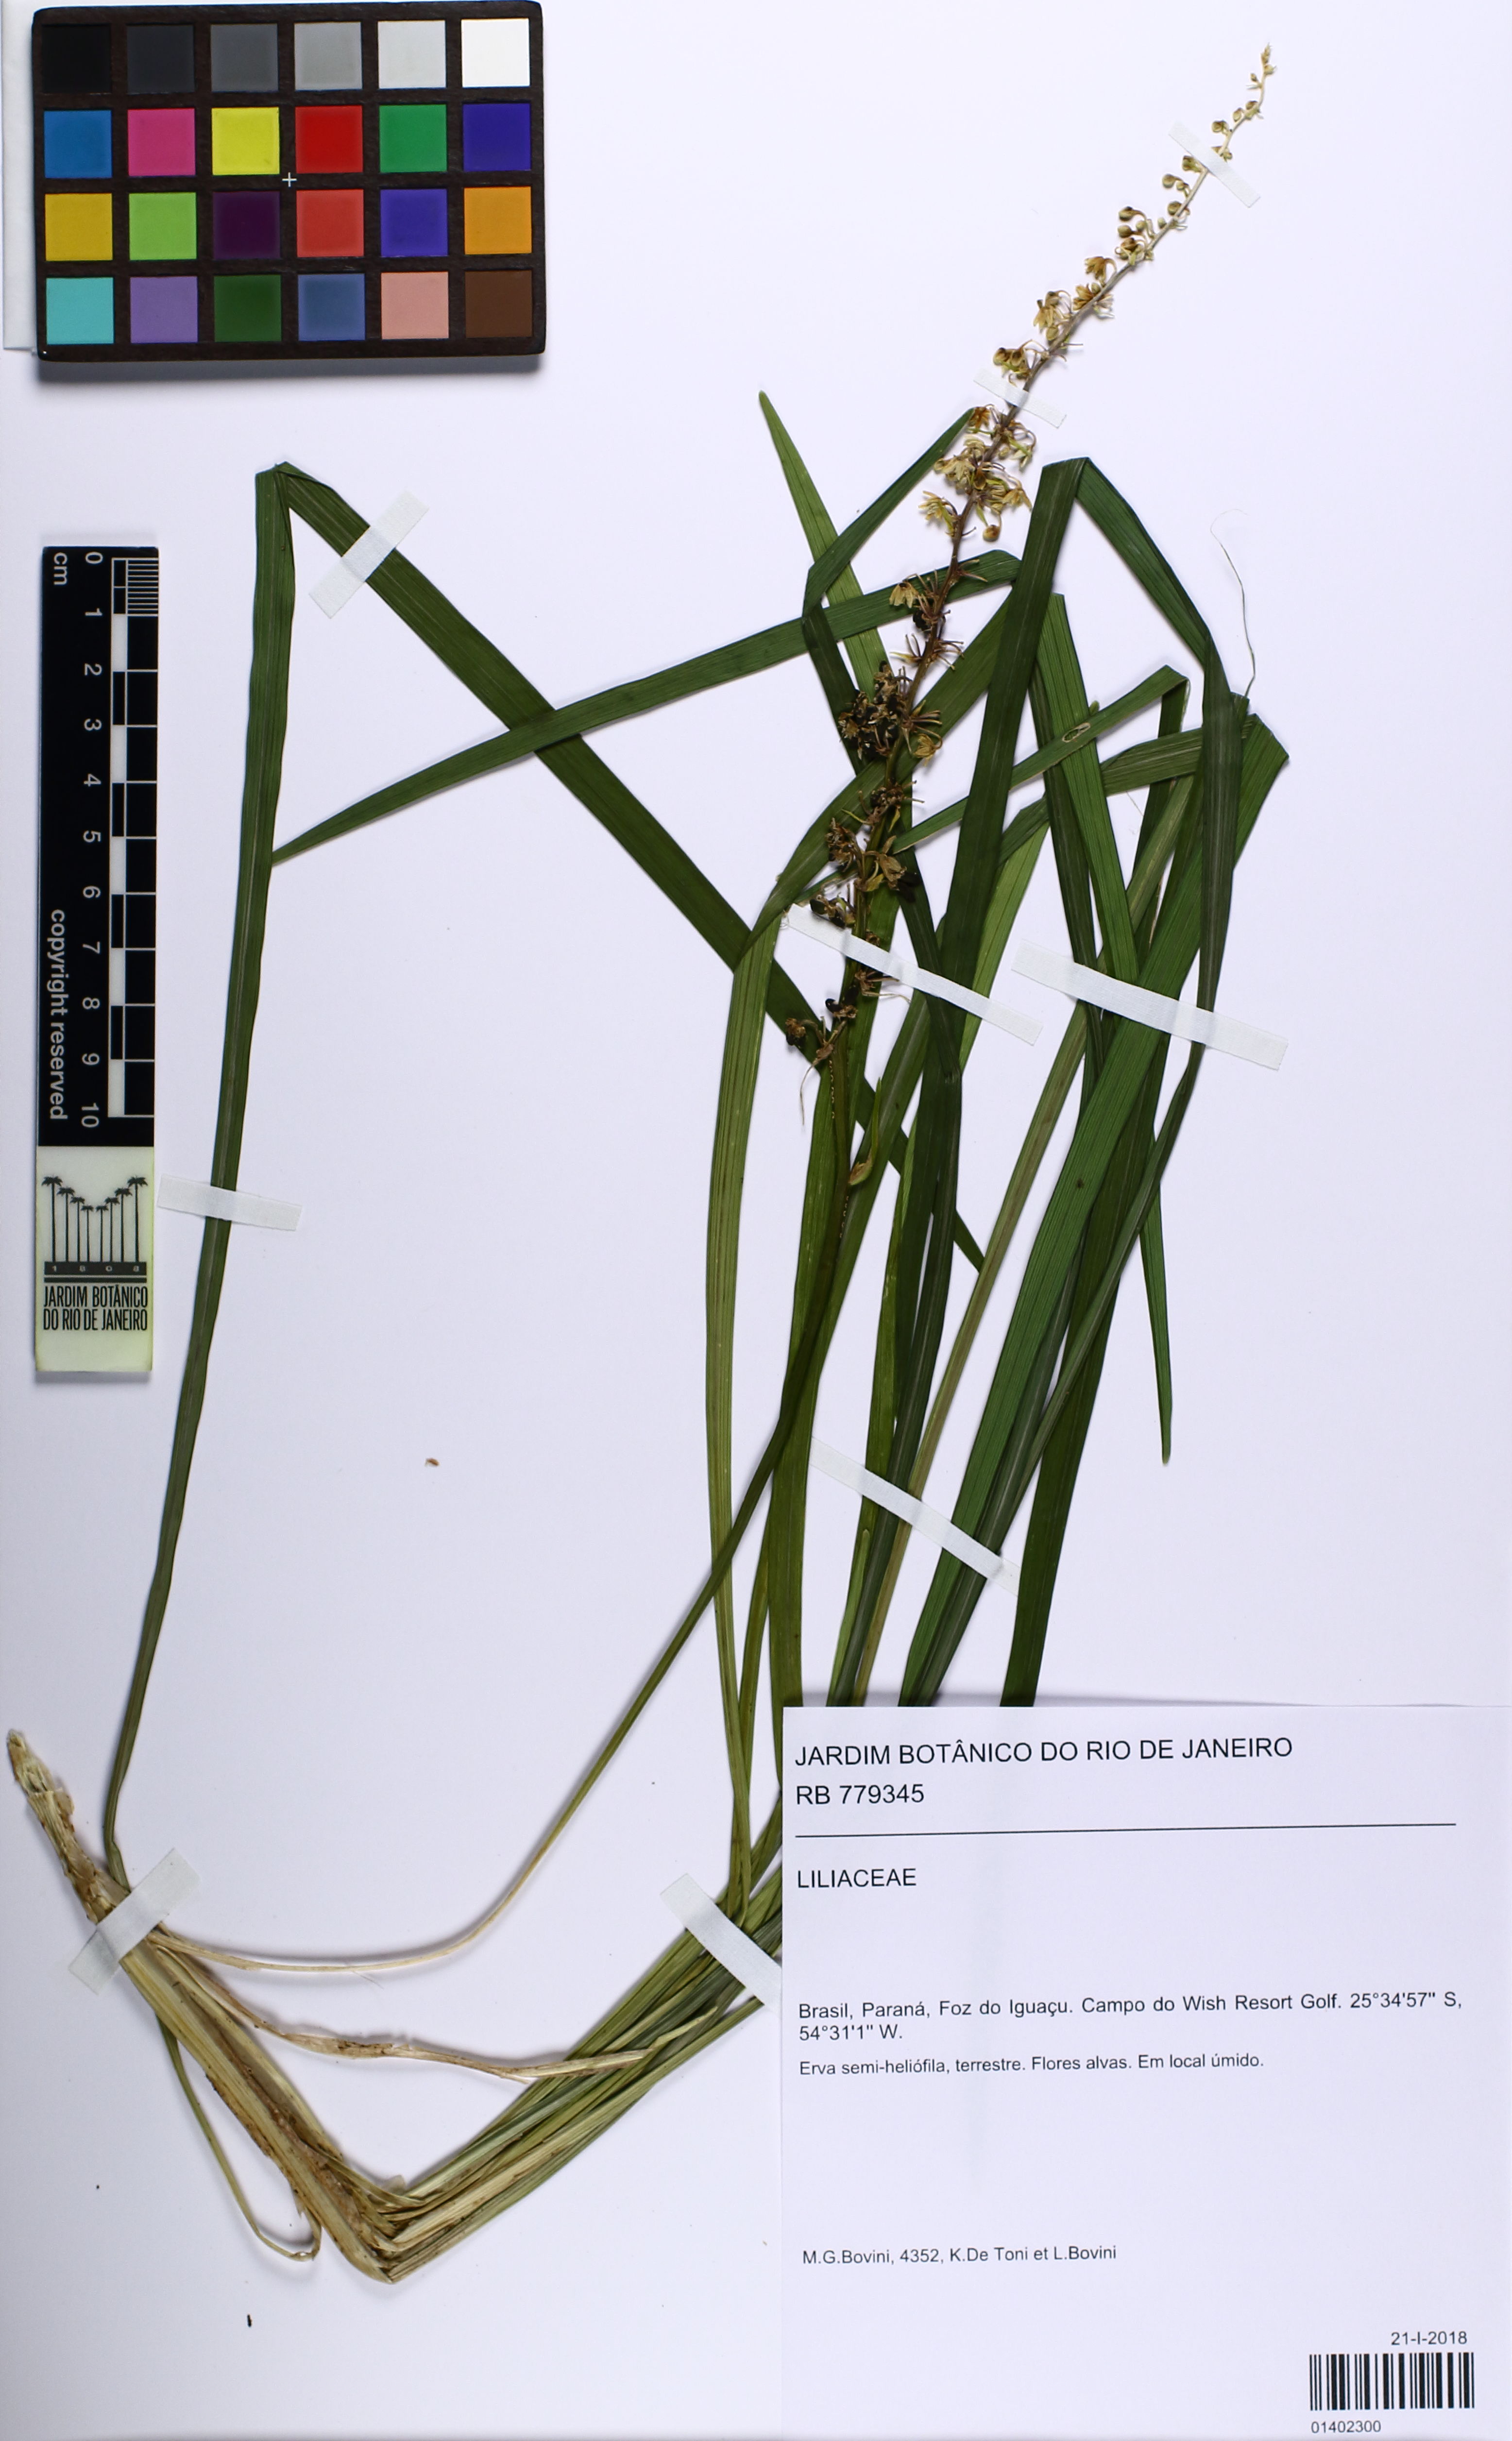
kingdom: Plantae
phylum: Tracheophyta
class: Liliopsida
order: Liliales
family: Liliaceae
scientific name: Liliaceae
